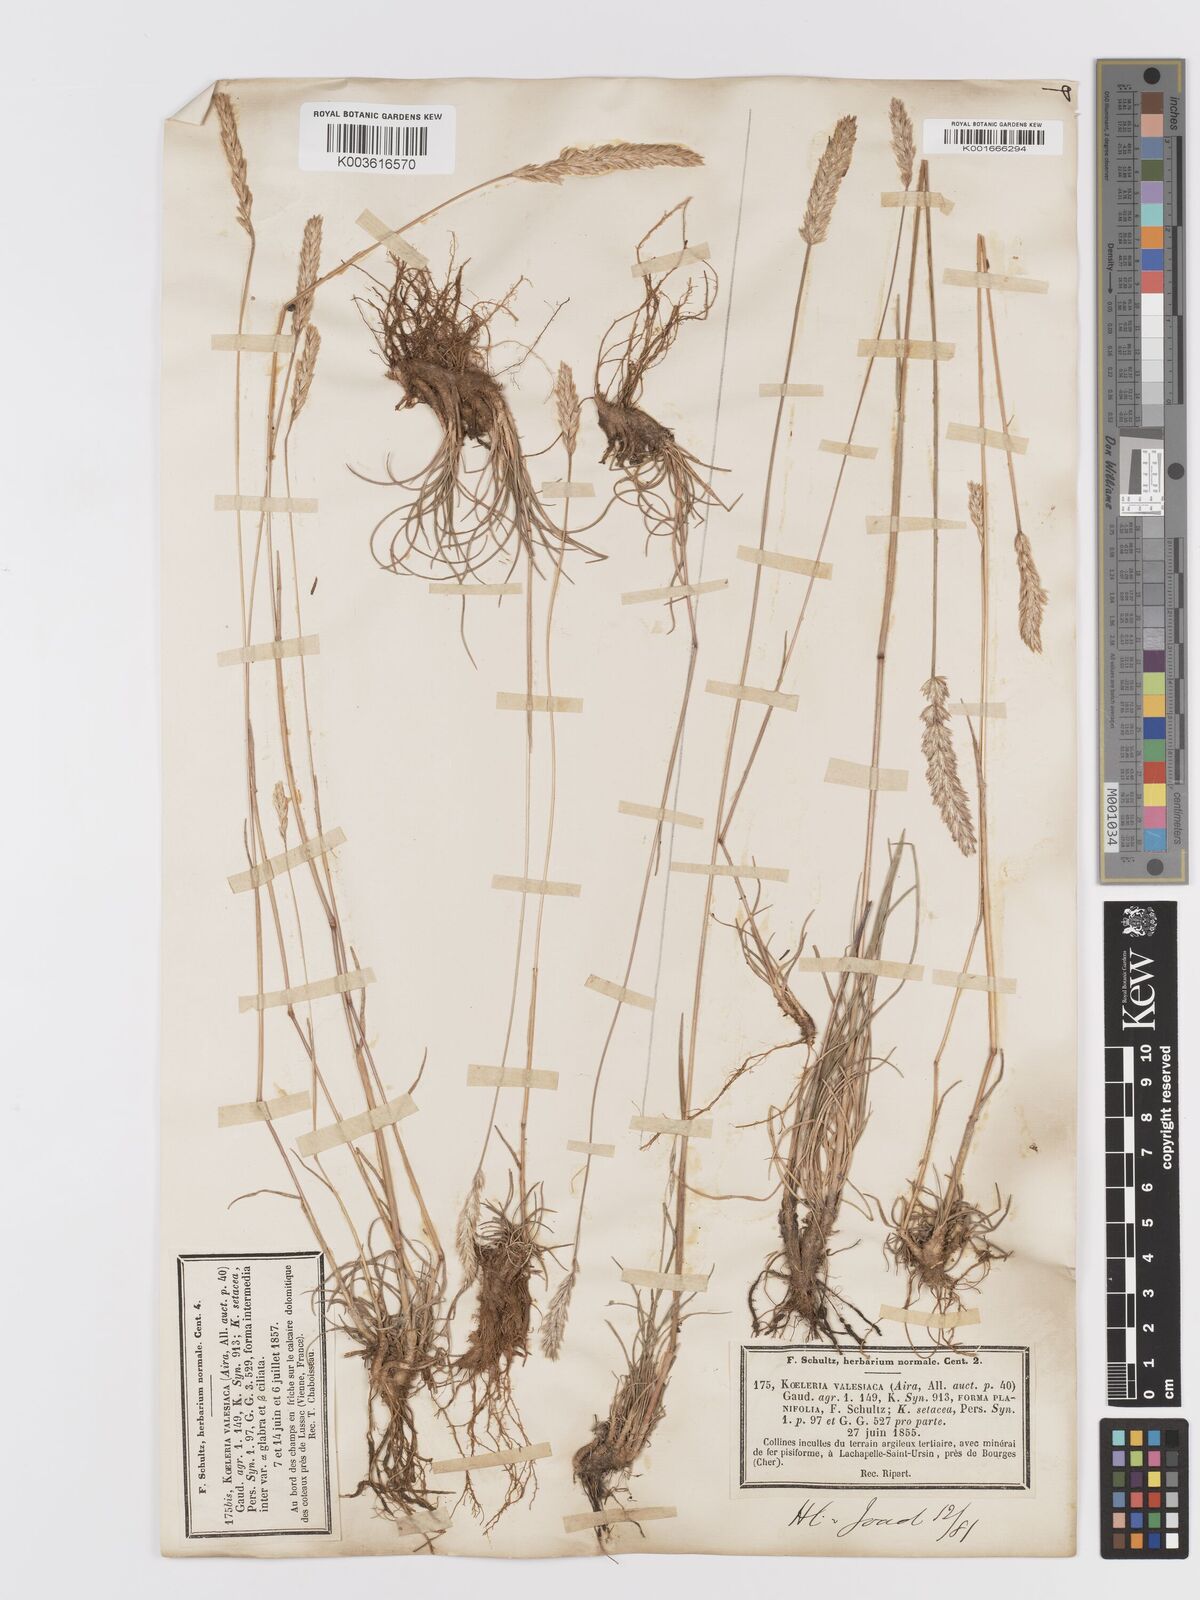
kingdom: Plantae
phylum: Tracheophyta
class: Liliopsida
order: Poales
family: Poaceae
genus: Koeleria
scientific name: Koeleria vallesiana
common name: Somerset hair-grass
